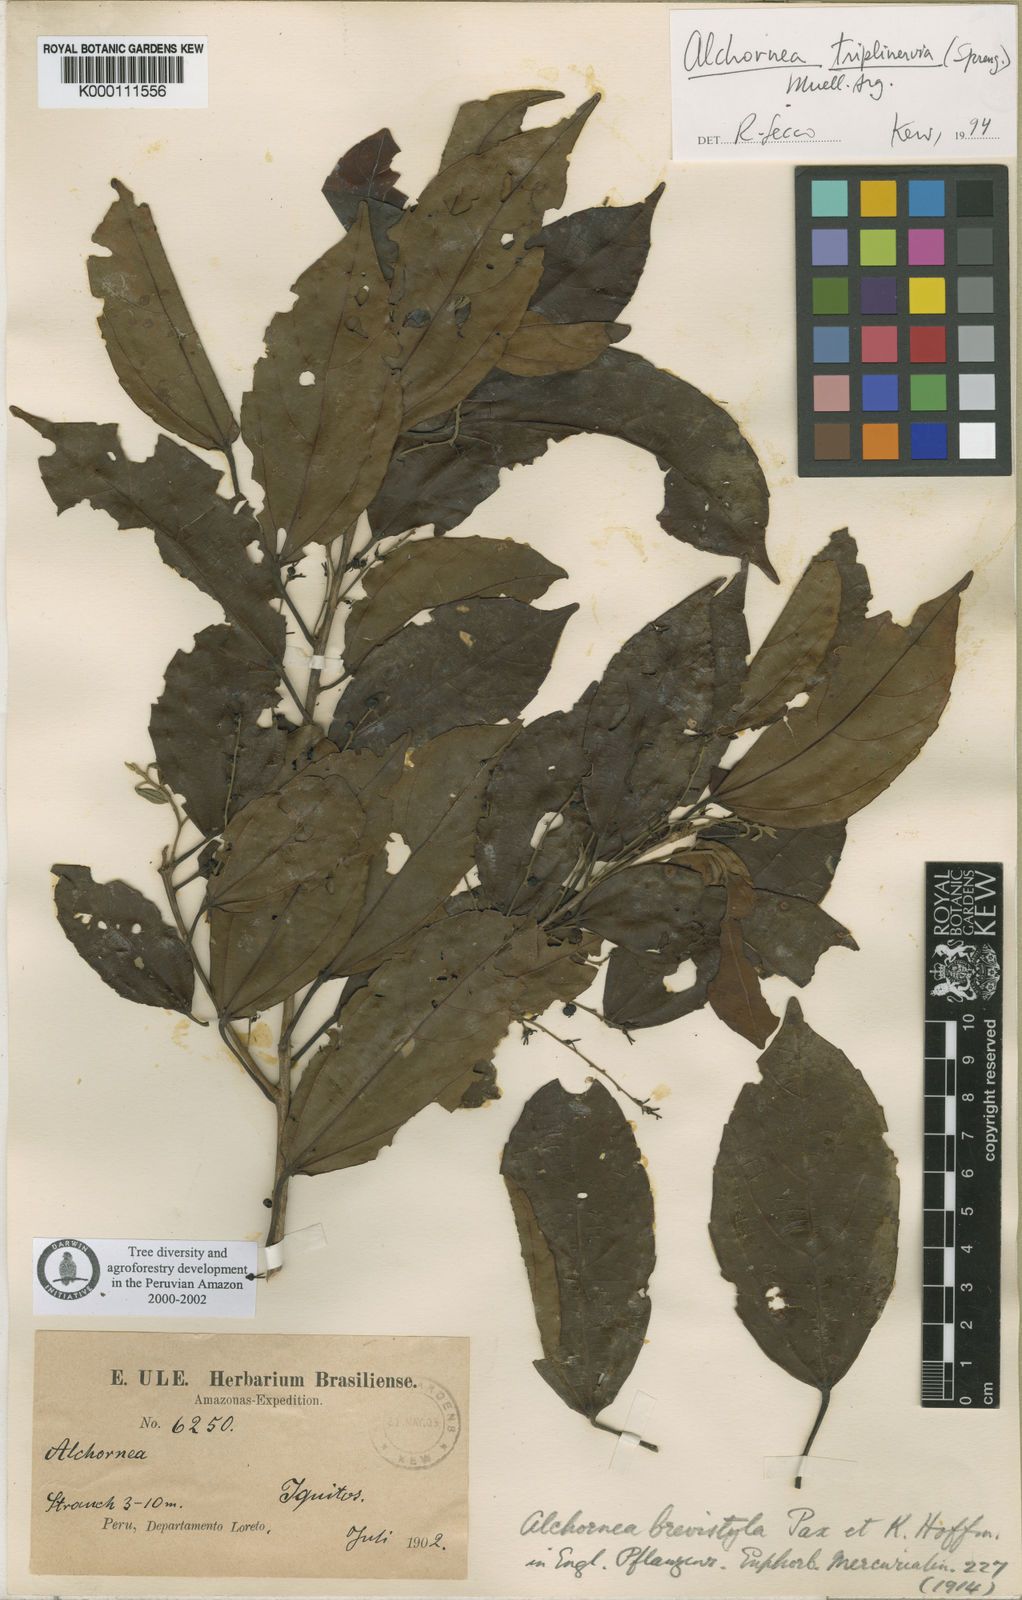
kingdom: Plantae
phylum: Tracheophyta
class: Magnoliopsida
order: Malpighiales
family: Euphorbiaceae
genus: Alchornea
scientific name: Alchornea
